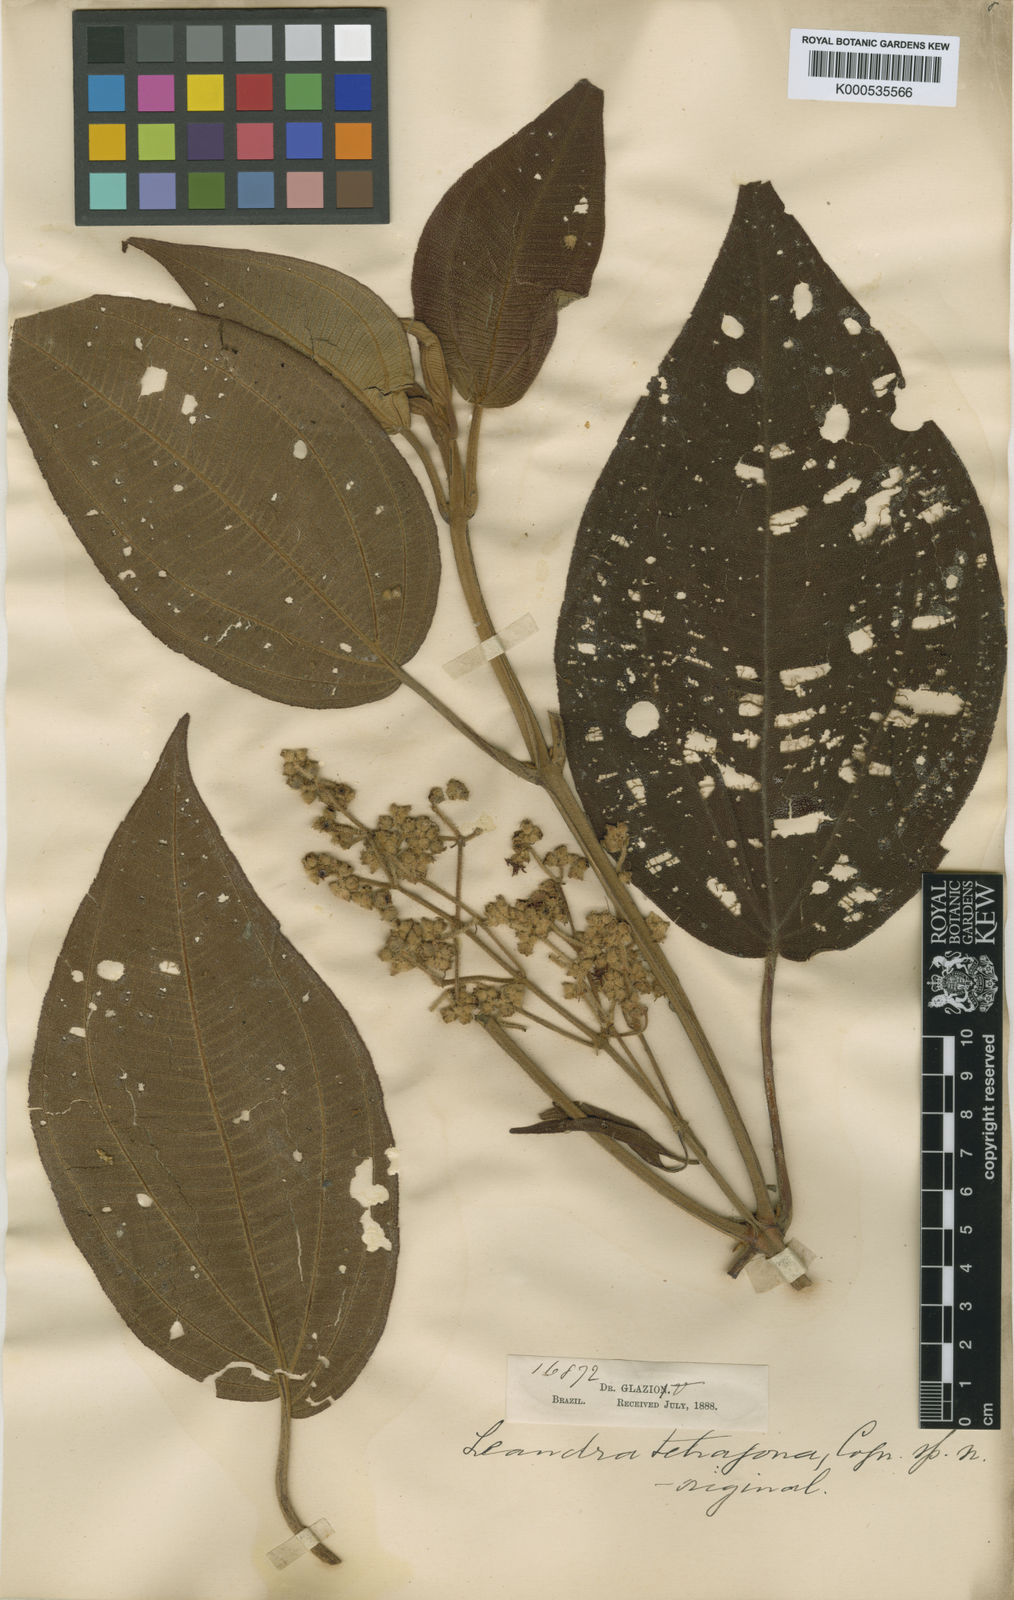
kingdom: Plantae
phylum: Tracheophyta
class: Magnoliopsida
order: Myrtales
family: Melastomataceae
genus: Miconia
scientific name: Miconia leatetragona
